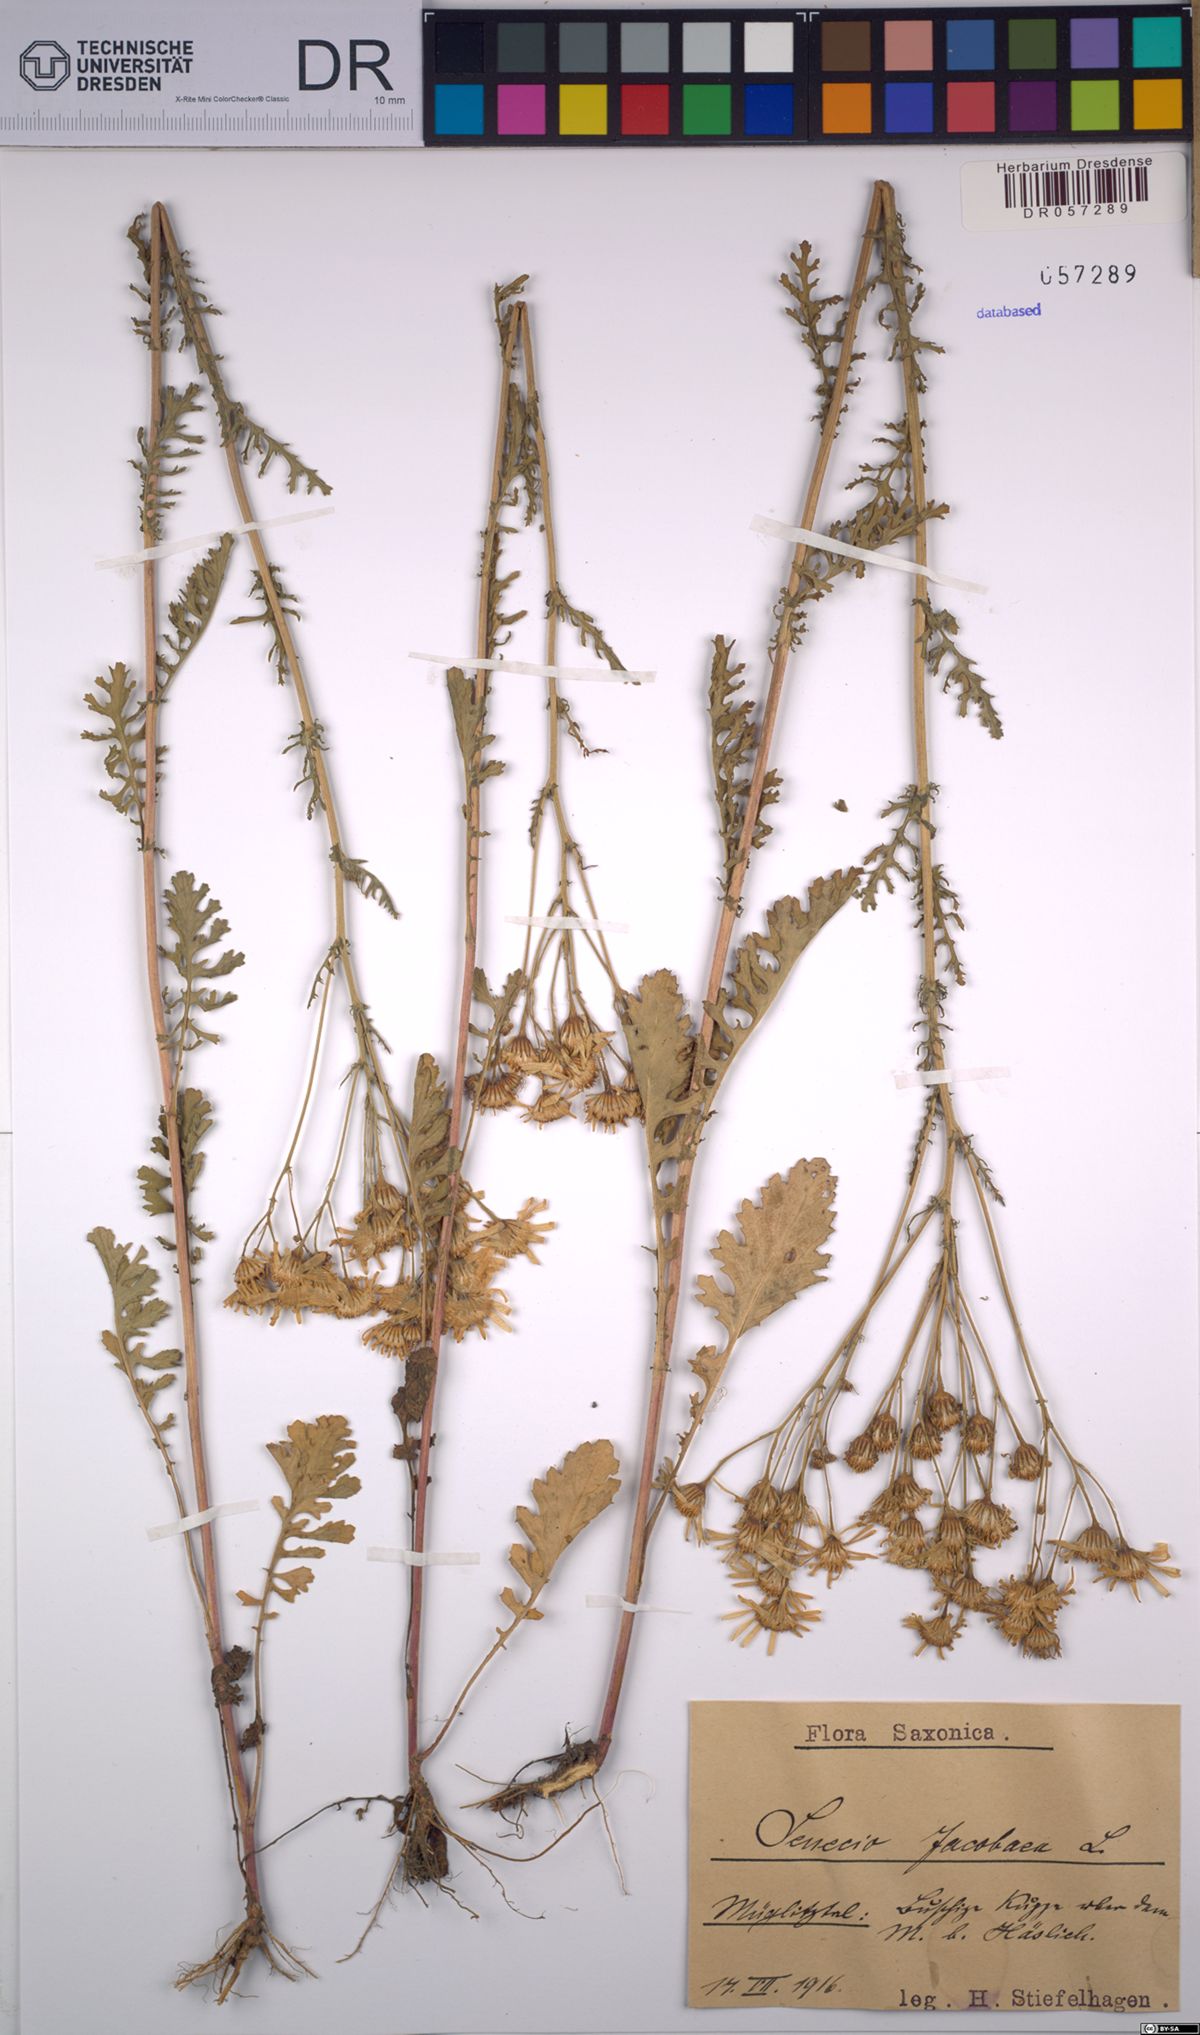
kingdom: Plantae
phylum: Tracheophyta
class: Magnoliopsida
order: Asterales
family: Asteraceae
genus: Jacobaea
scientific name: Jacobaea vulgaris
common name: Stinking willie
